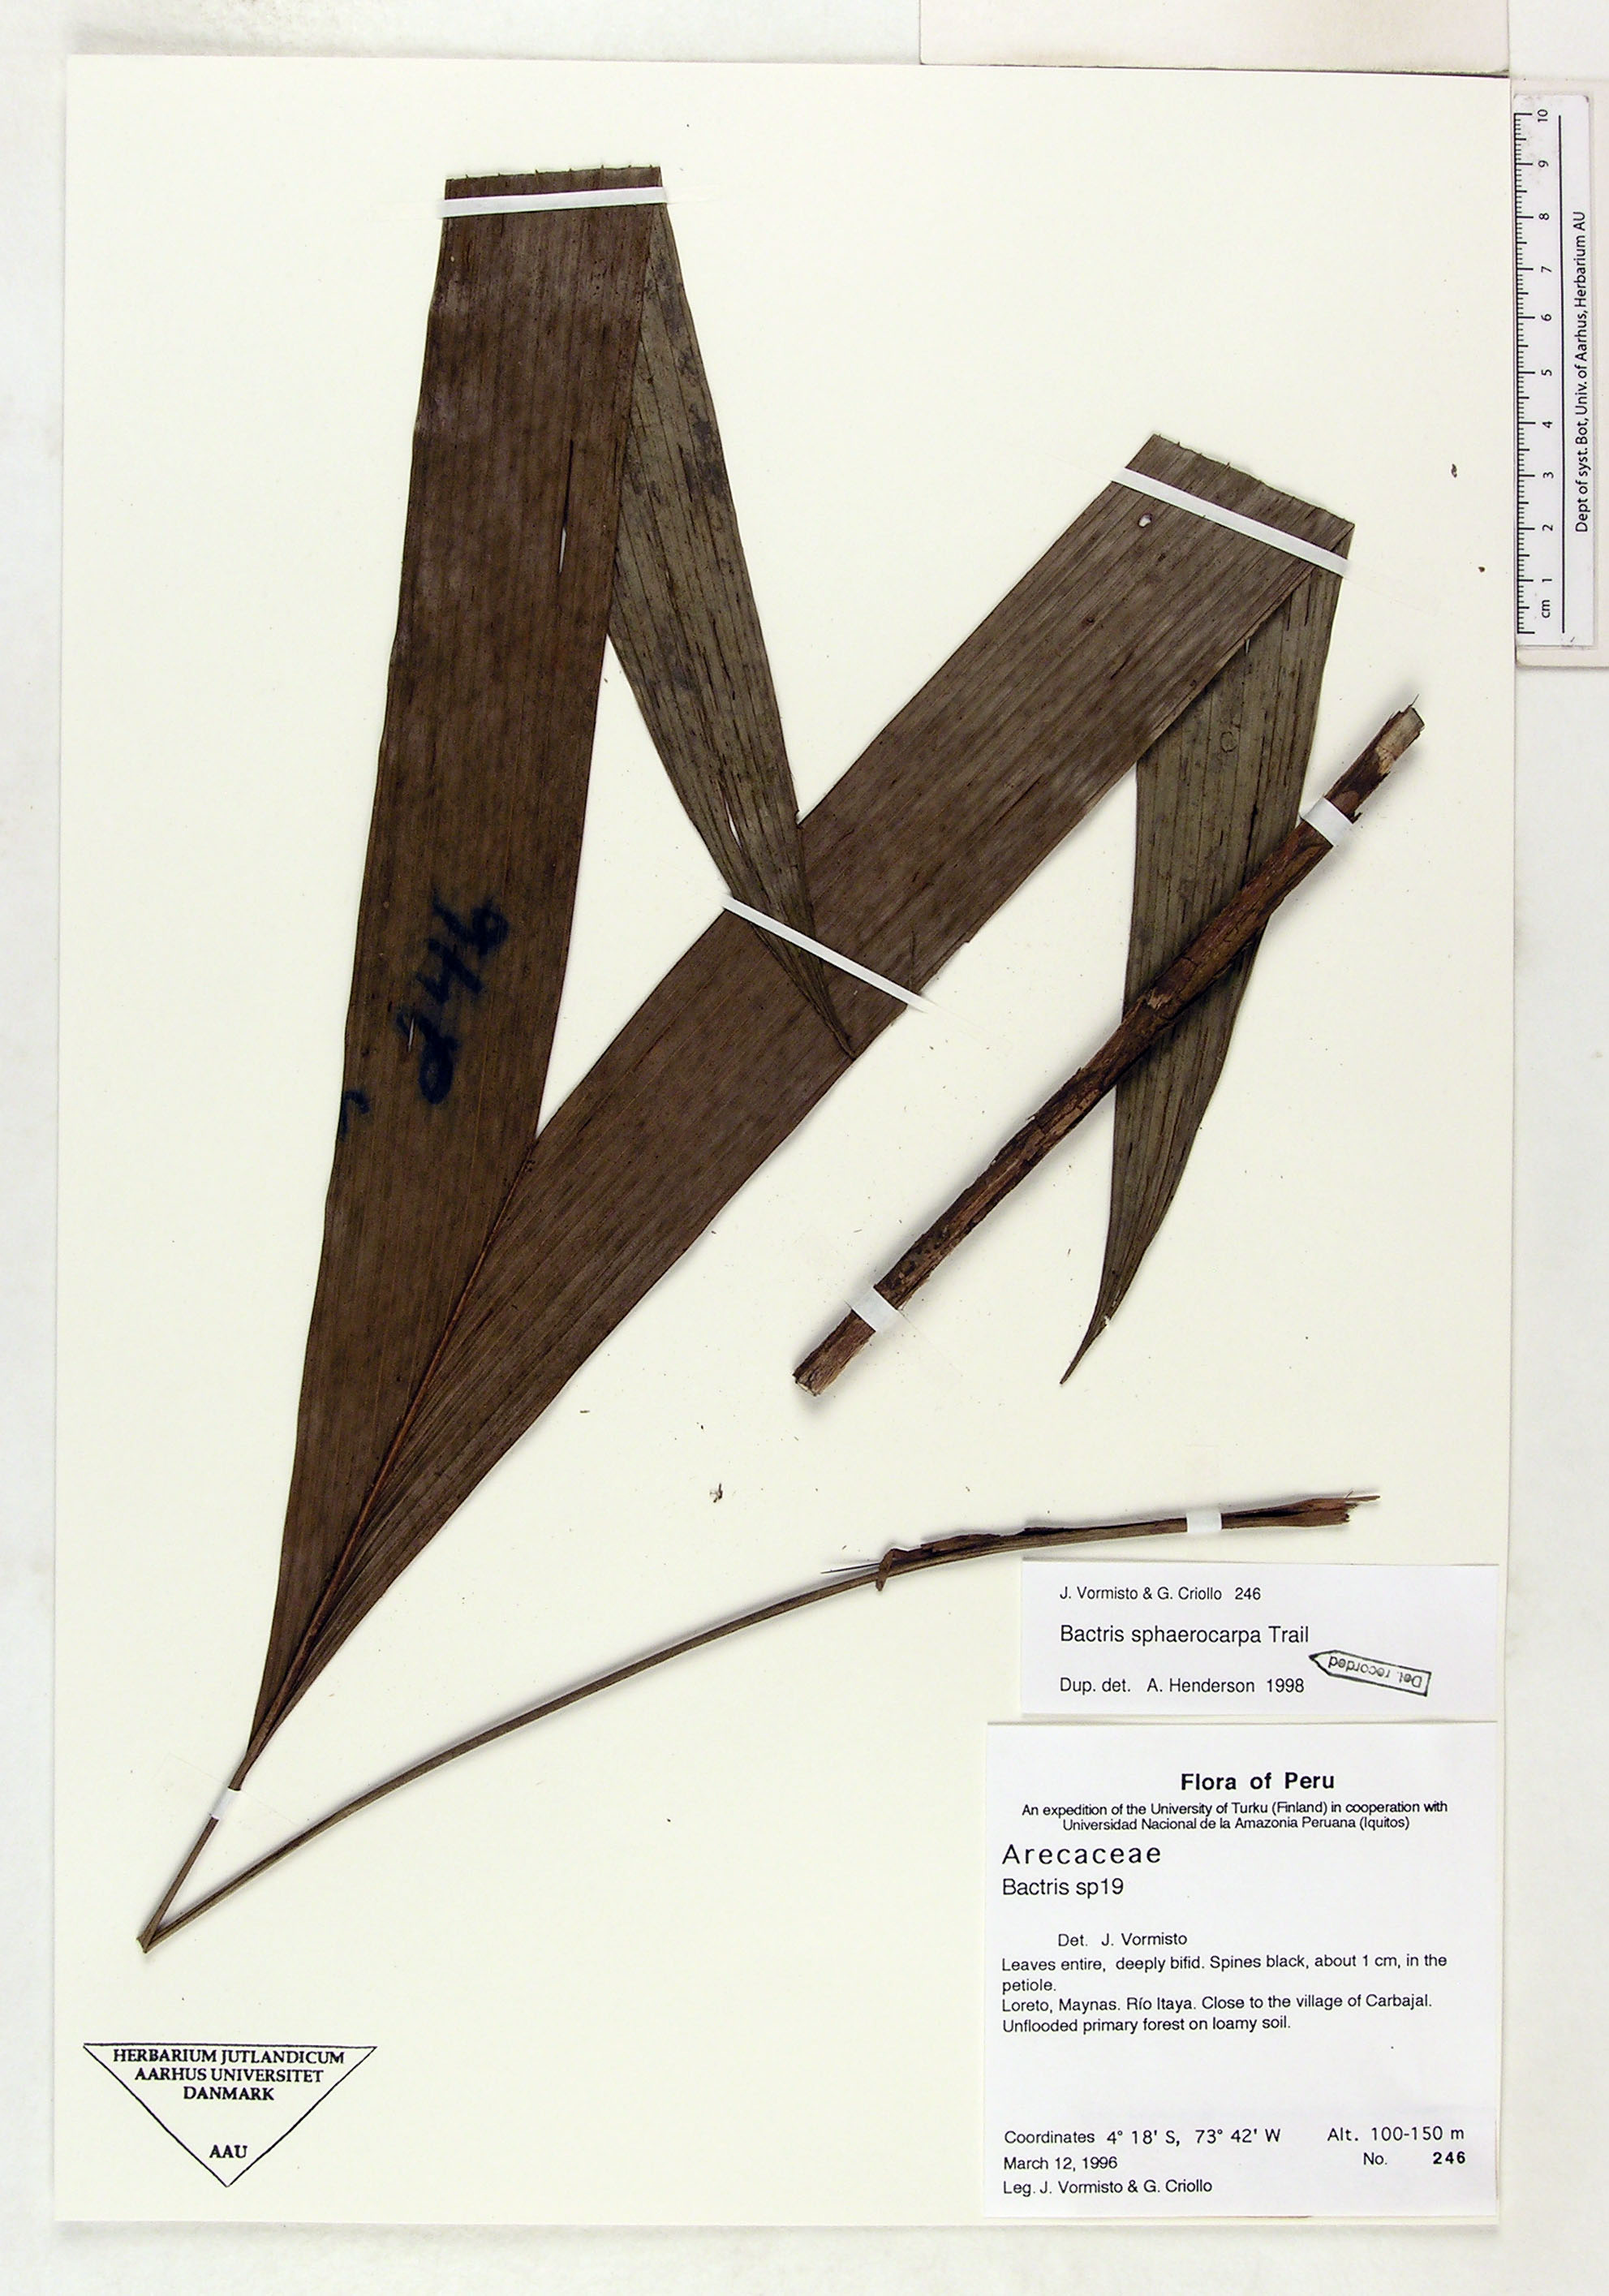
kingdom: Plantae
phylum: Tracheophyta
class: Liliopsida
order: Arecales
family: Arecaceae
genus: Bactris
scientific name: Bactris sphaerocarpa
